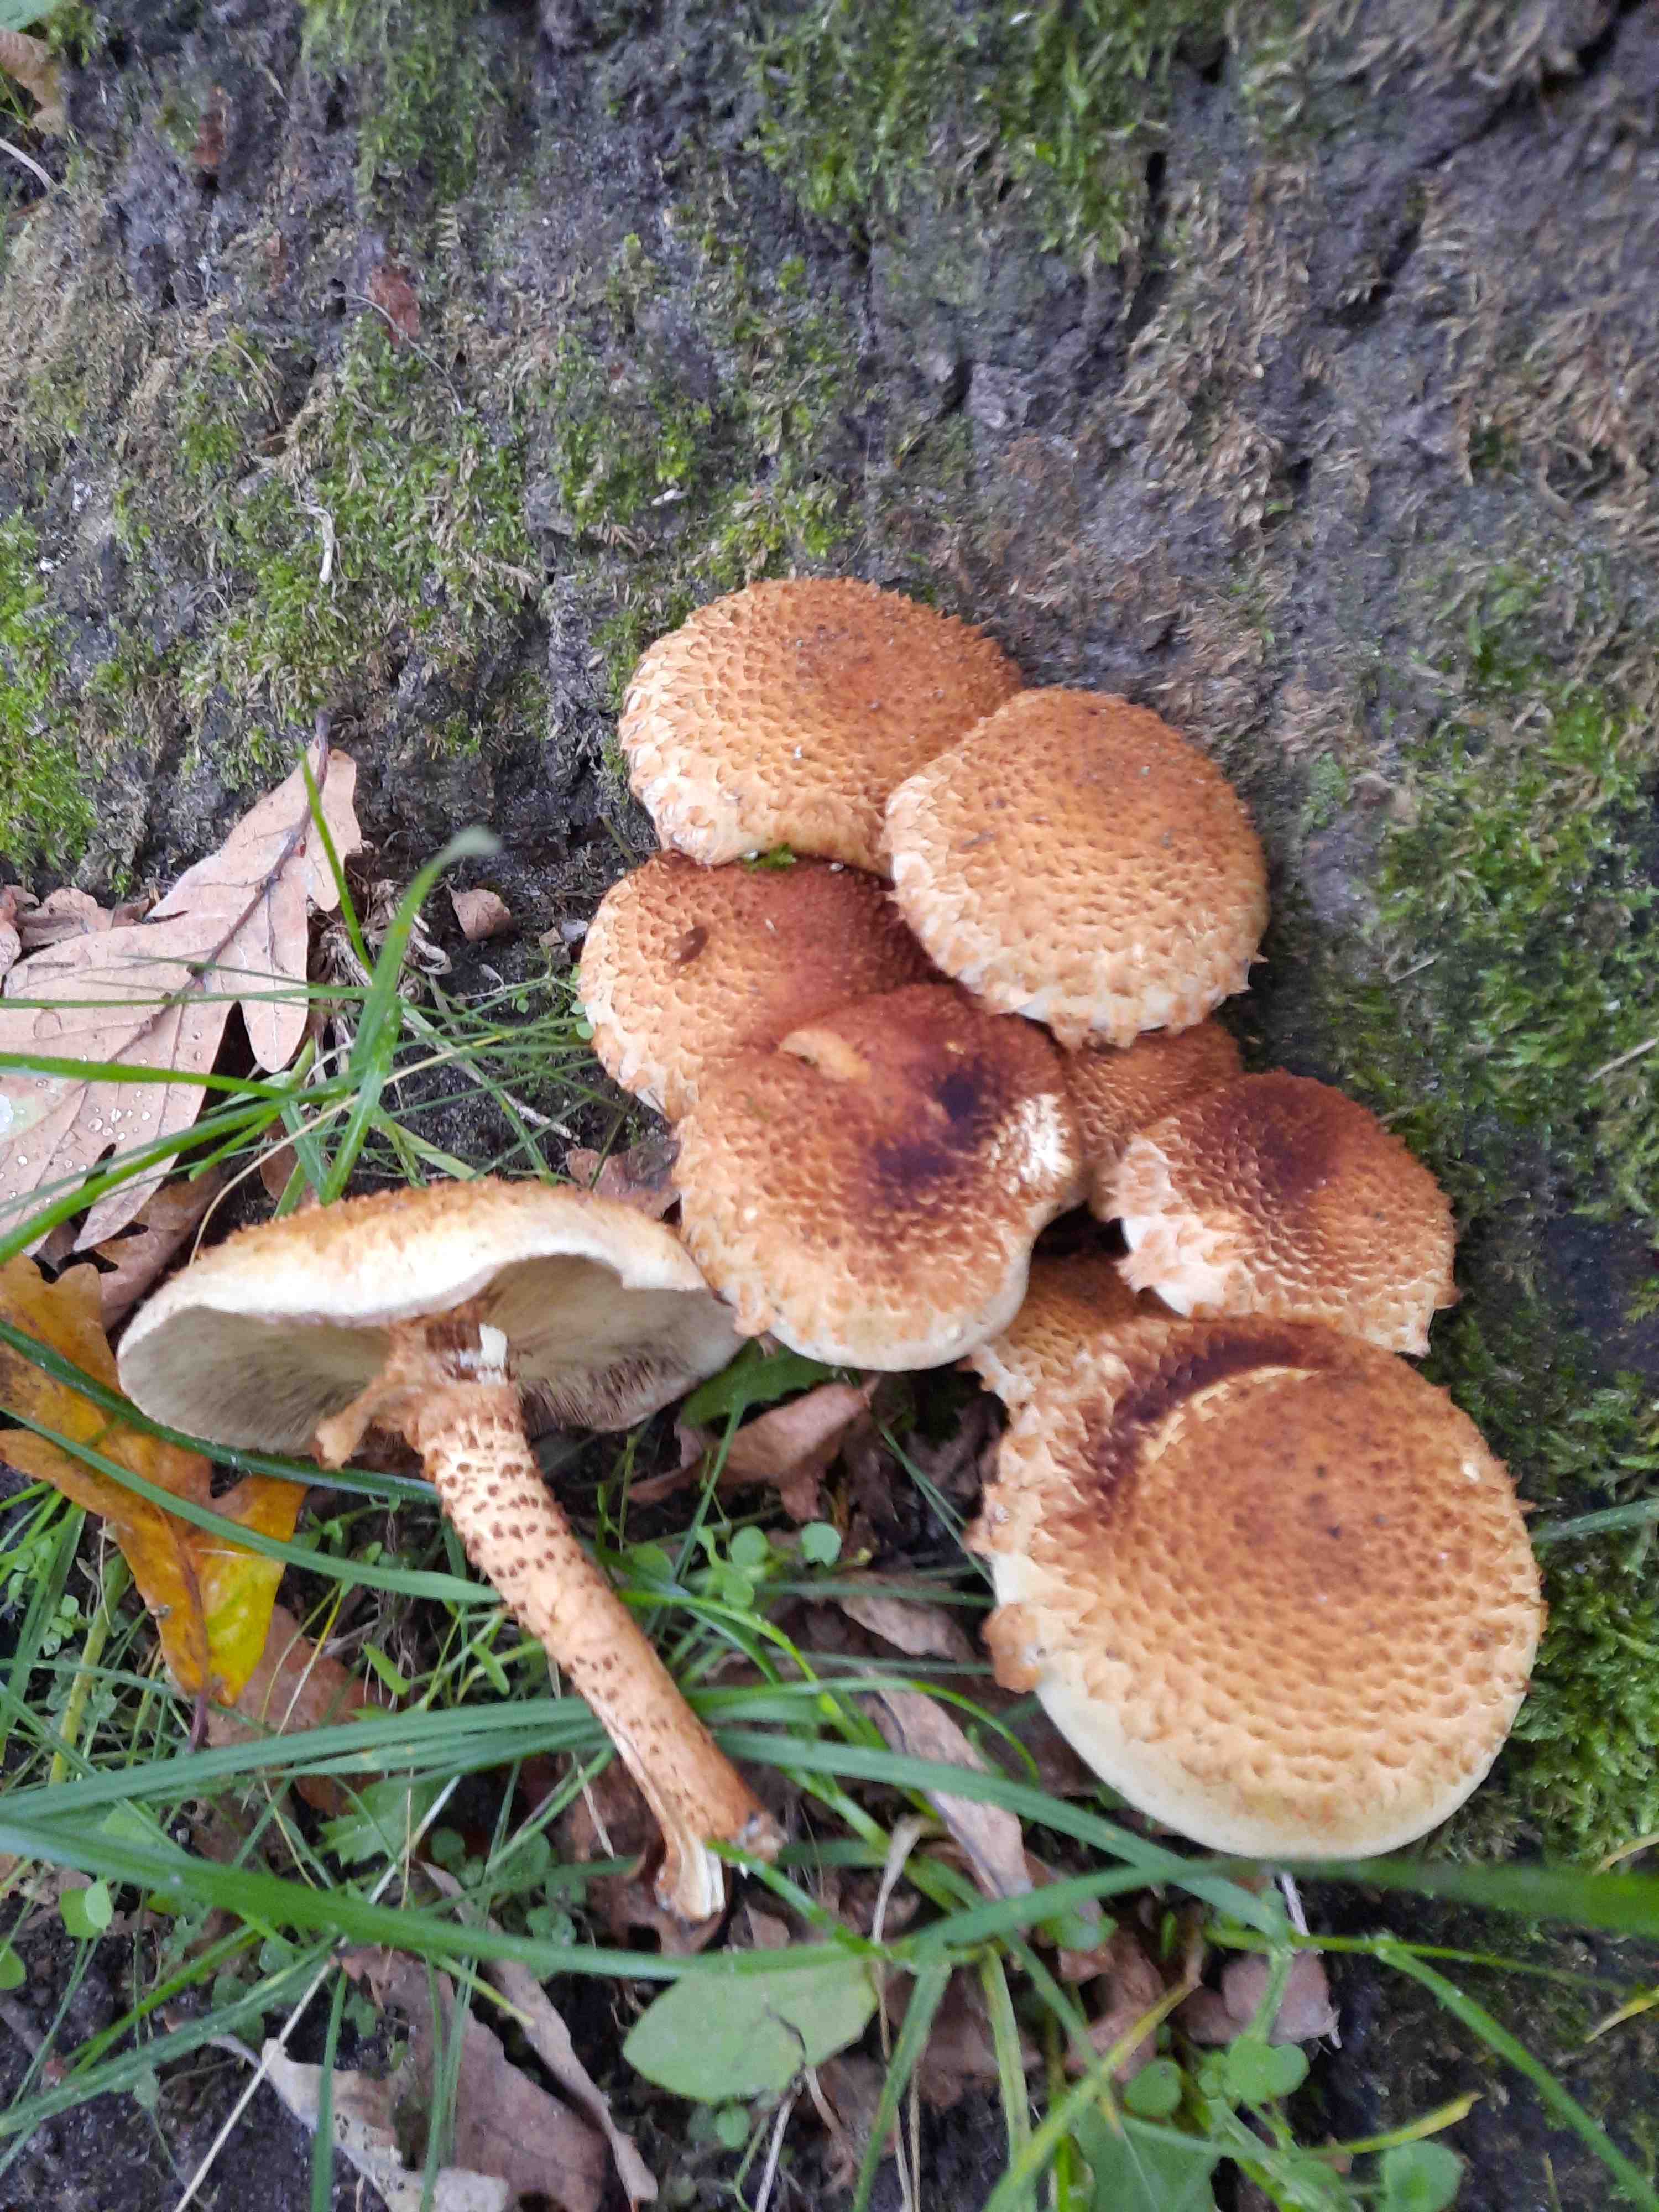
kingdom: Fungi
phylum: Basidiomycota
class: Agaricomycetes
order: Agaricales
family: Strophariaceae
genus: Pholiota
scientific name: Pholiota squarrosa
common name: krumskællet skælhat
